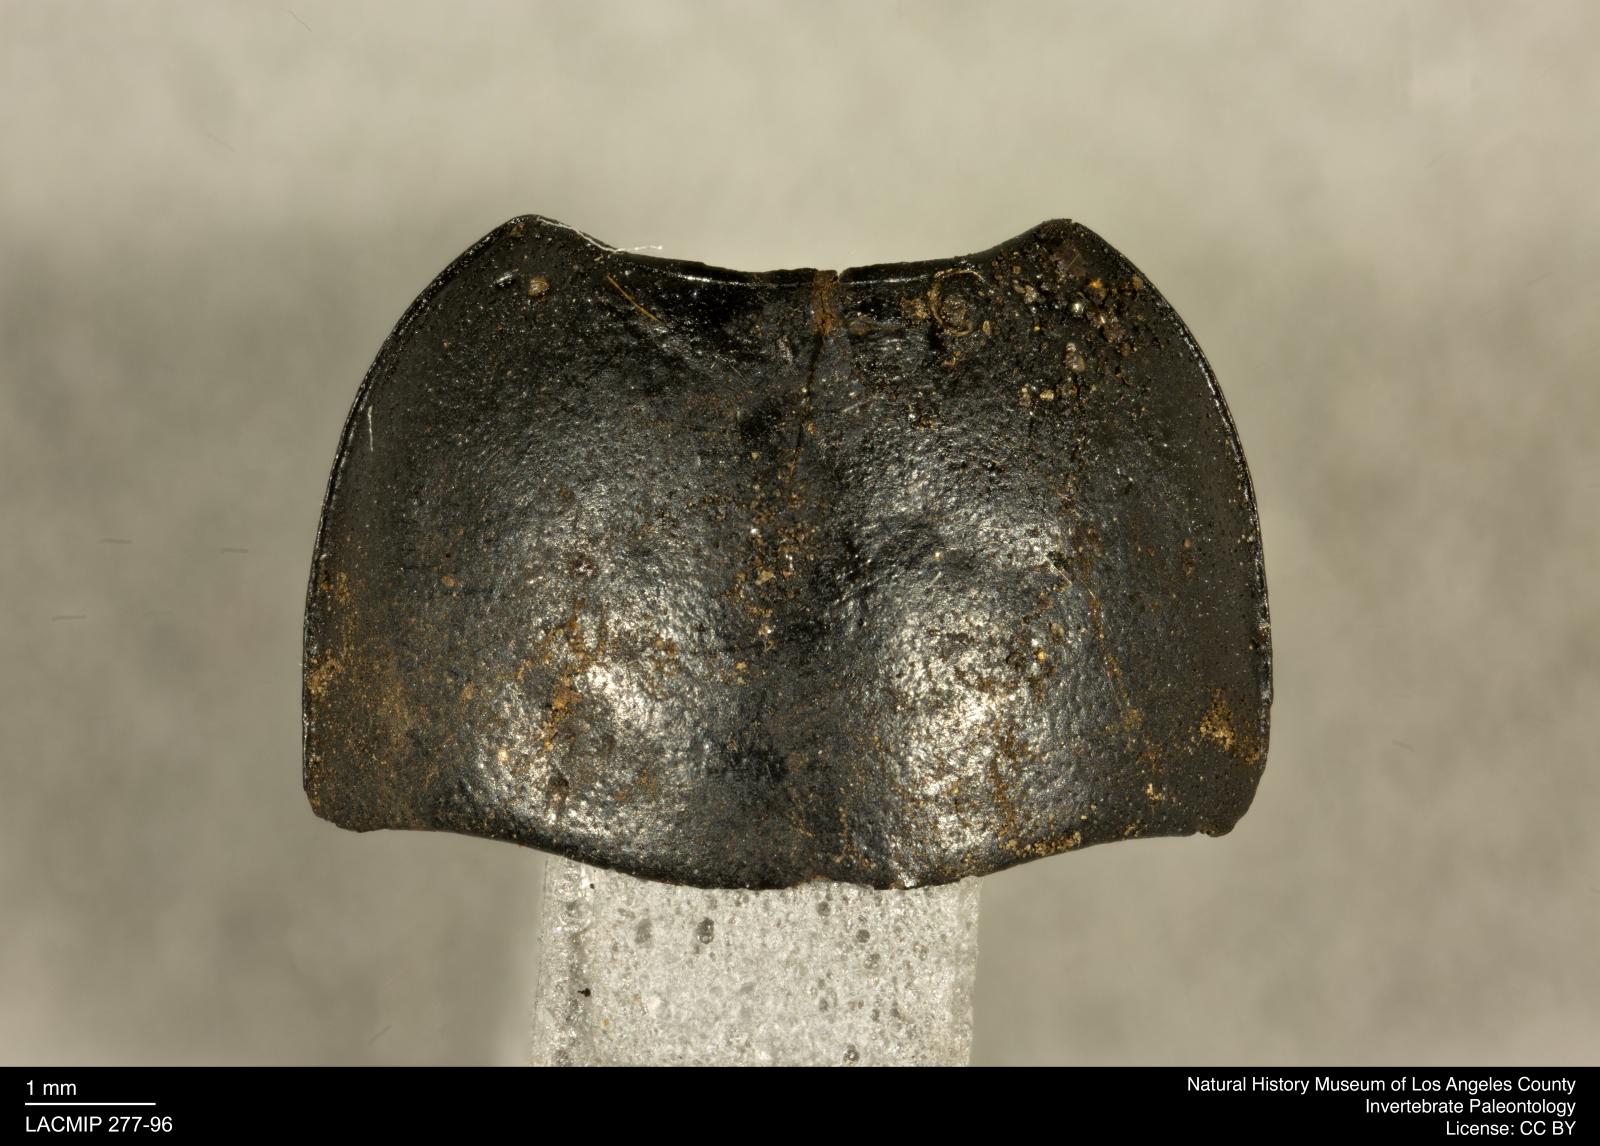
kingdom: Animalia
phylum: Arthropoda
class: Insecta
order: Coleoptera
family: Tenebrionidae
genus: Coniontis
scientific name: Coniontis abdominalis
